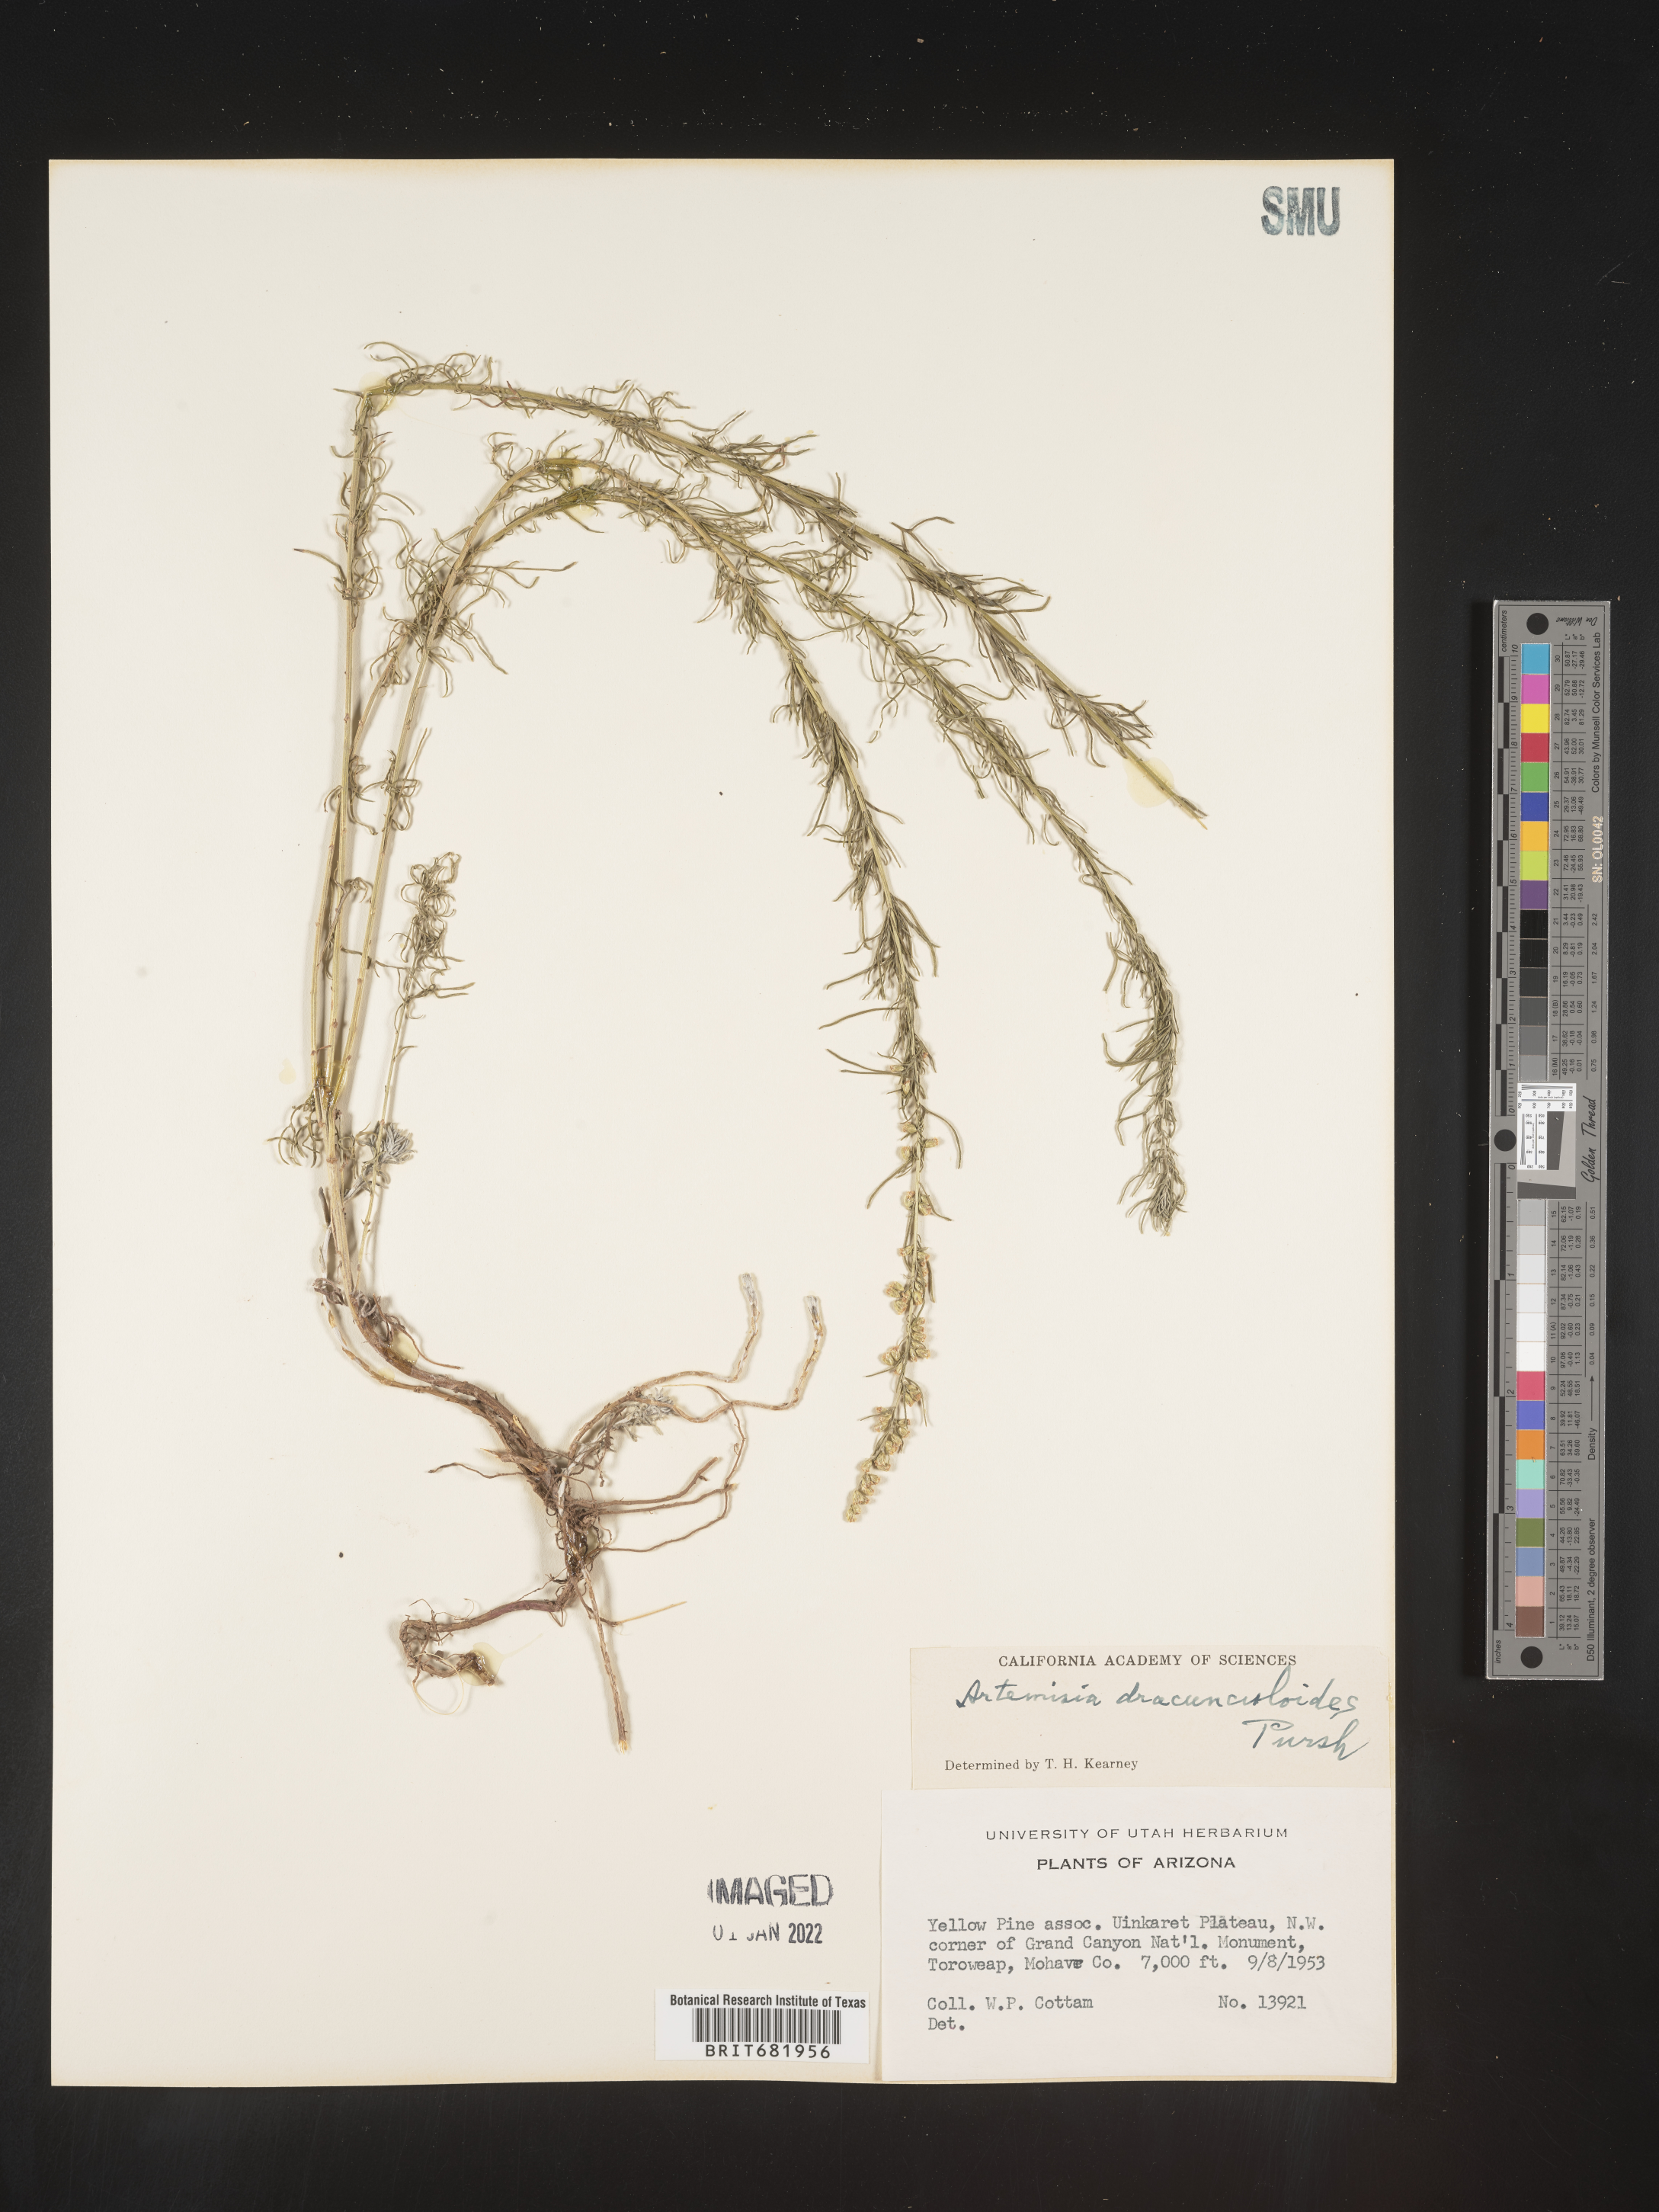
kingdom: Plantae
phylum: Tracheophyta
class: Magnoliopsida
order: Asterales
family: Asteraceae
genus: Artemisia
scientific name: Artemisia dracunculus
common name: Tarragon
